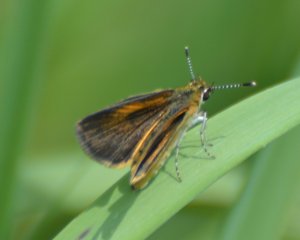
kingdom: Animalia
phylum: Arthropoda
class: Insecta
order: Lepidoptera
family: Hesperiidae
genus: Ancyloxypha
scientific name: Ancyloxypha numitor
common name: Least Skipper
